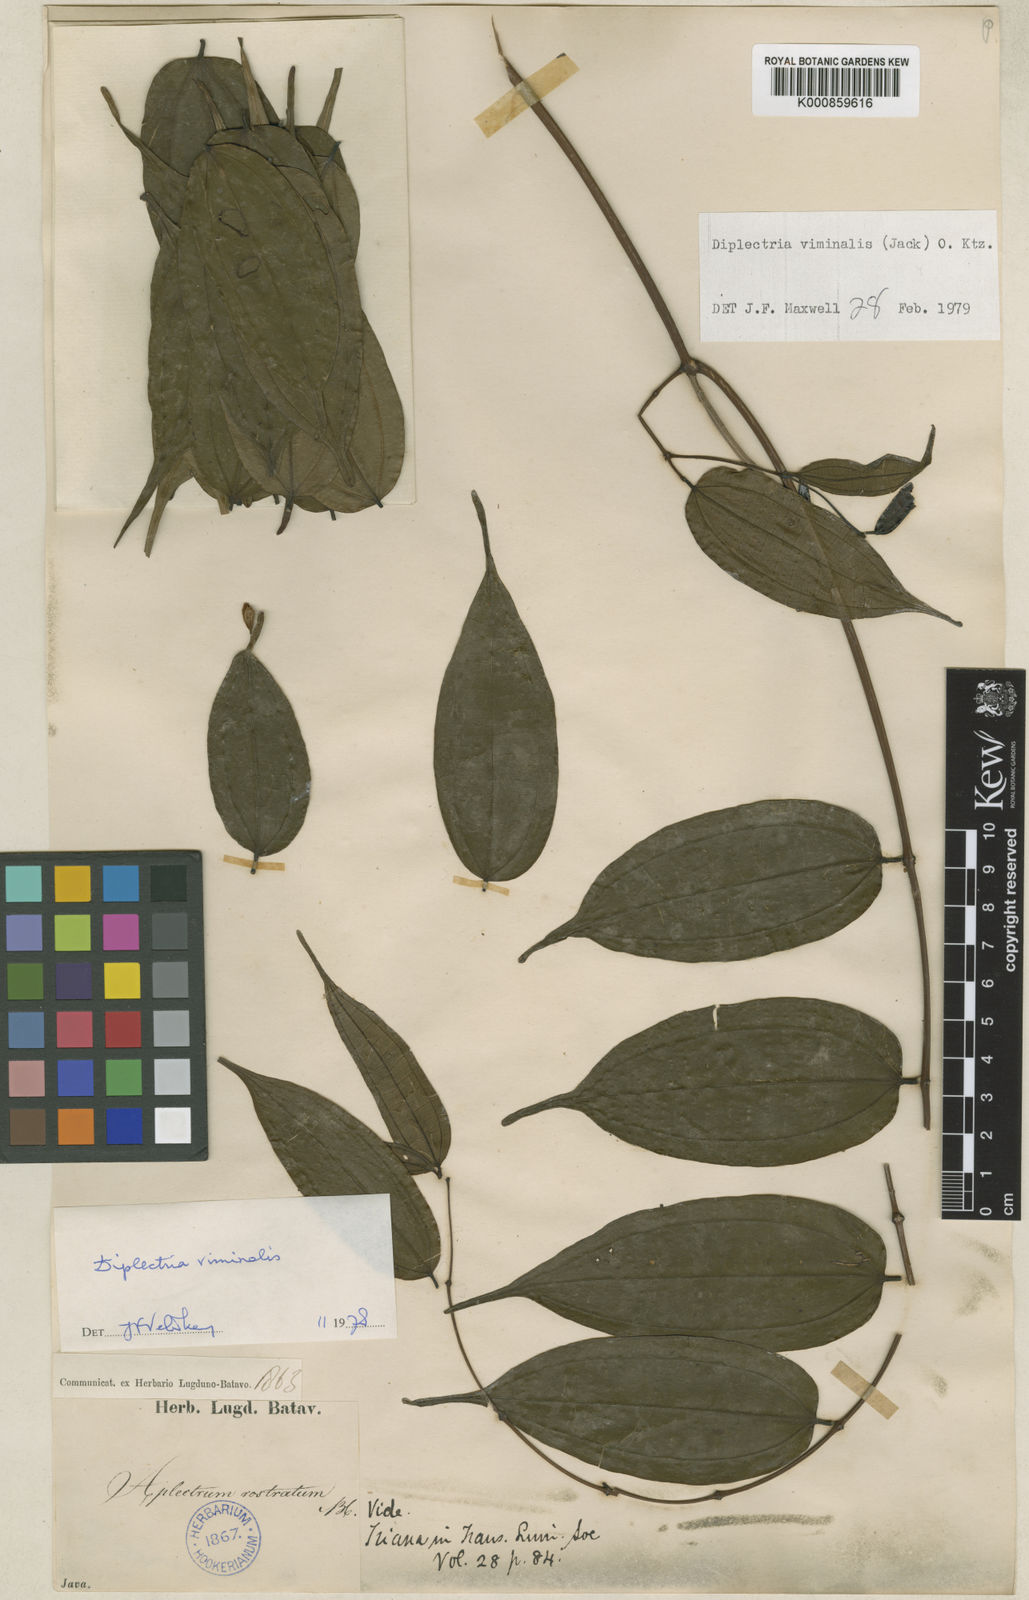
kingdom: Plantae
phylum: Tracheophyta
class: Magnoliopsida
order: Myrtales
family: Melastomataceae
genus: Diplectria
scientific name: Diplectria viminalis
